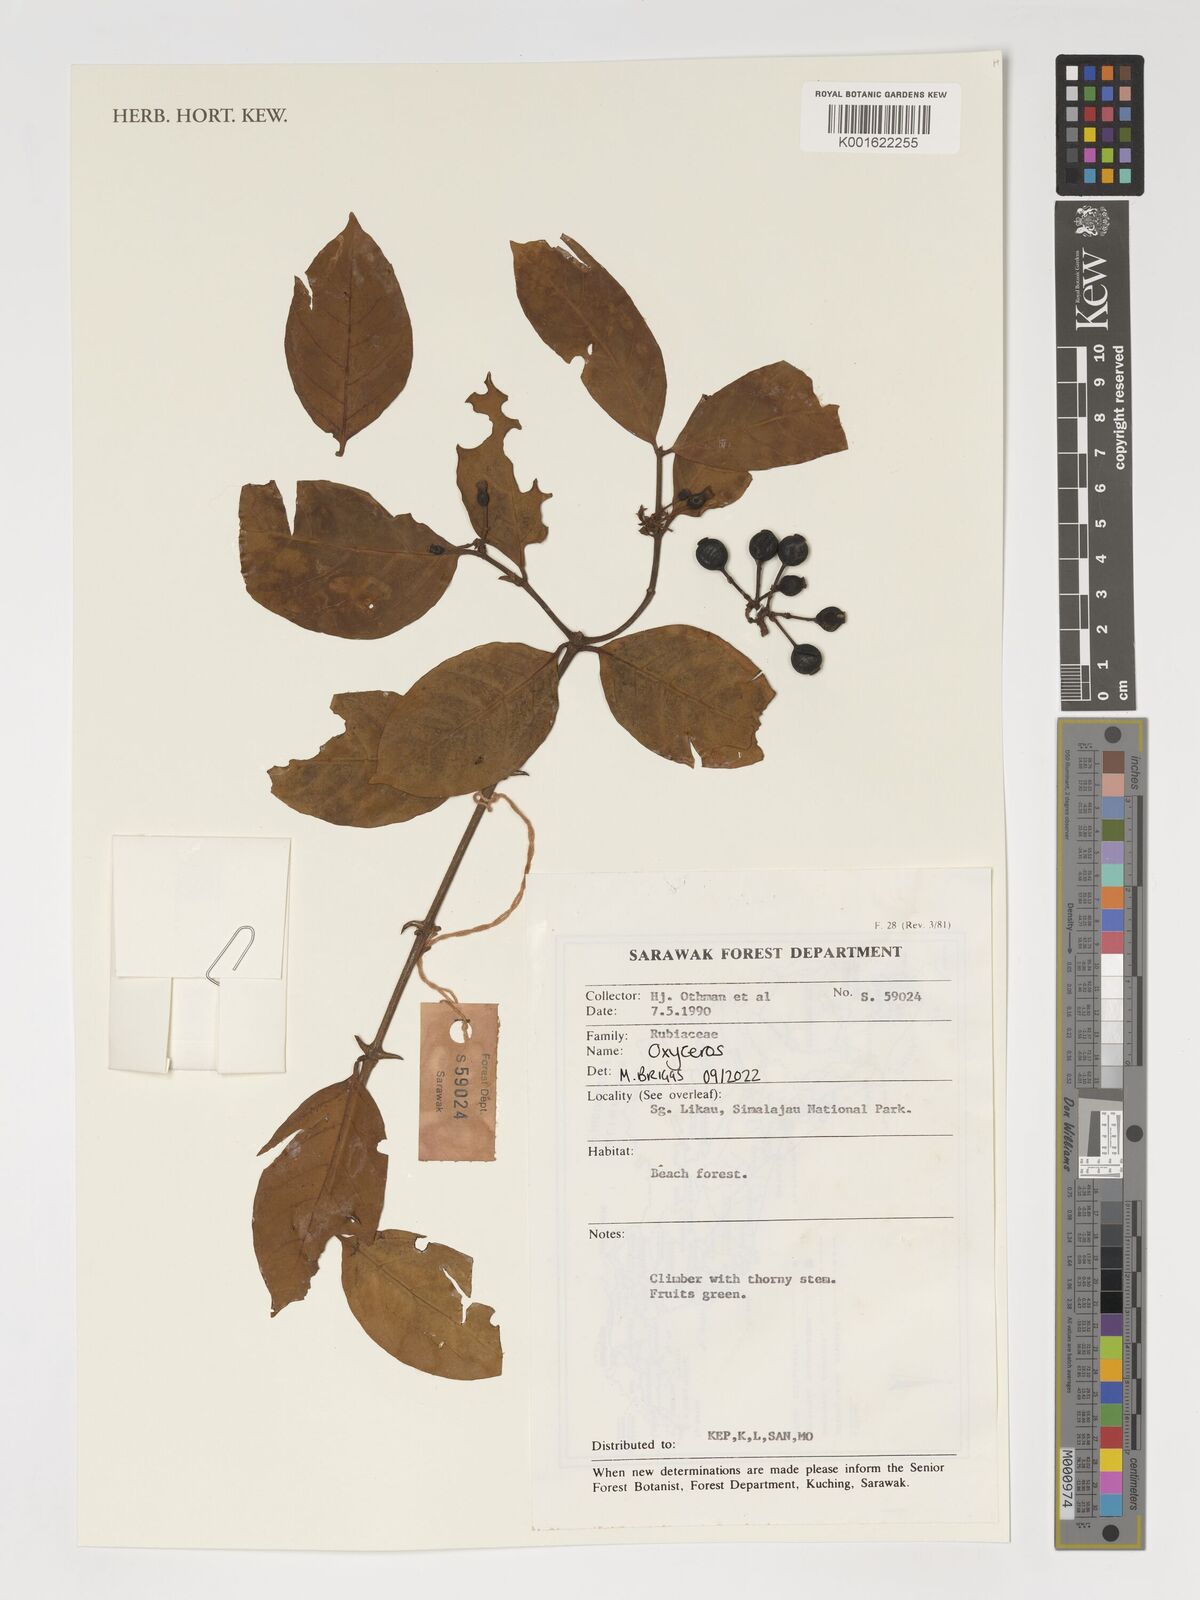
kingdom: Plantae
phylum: Tracheophyta
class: Magnoliopsida
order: Gentianales
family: Rubiaceae
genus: Oxyceros
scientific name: Oxyceros
